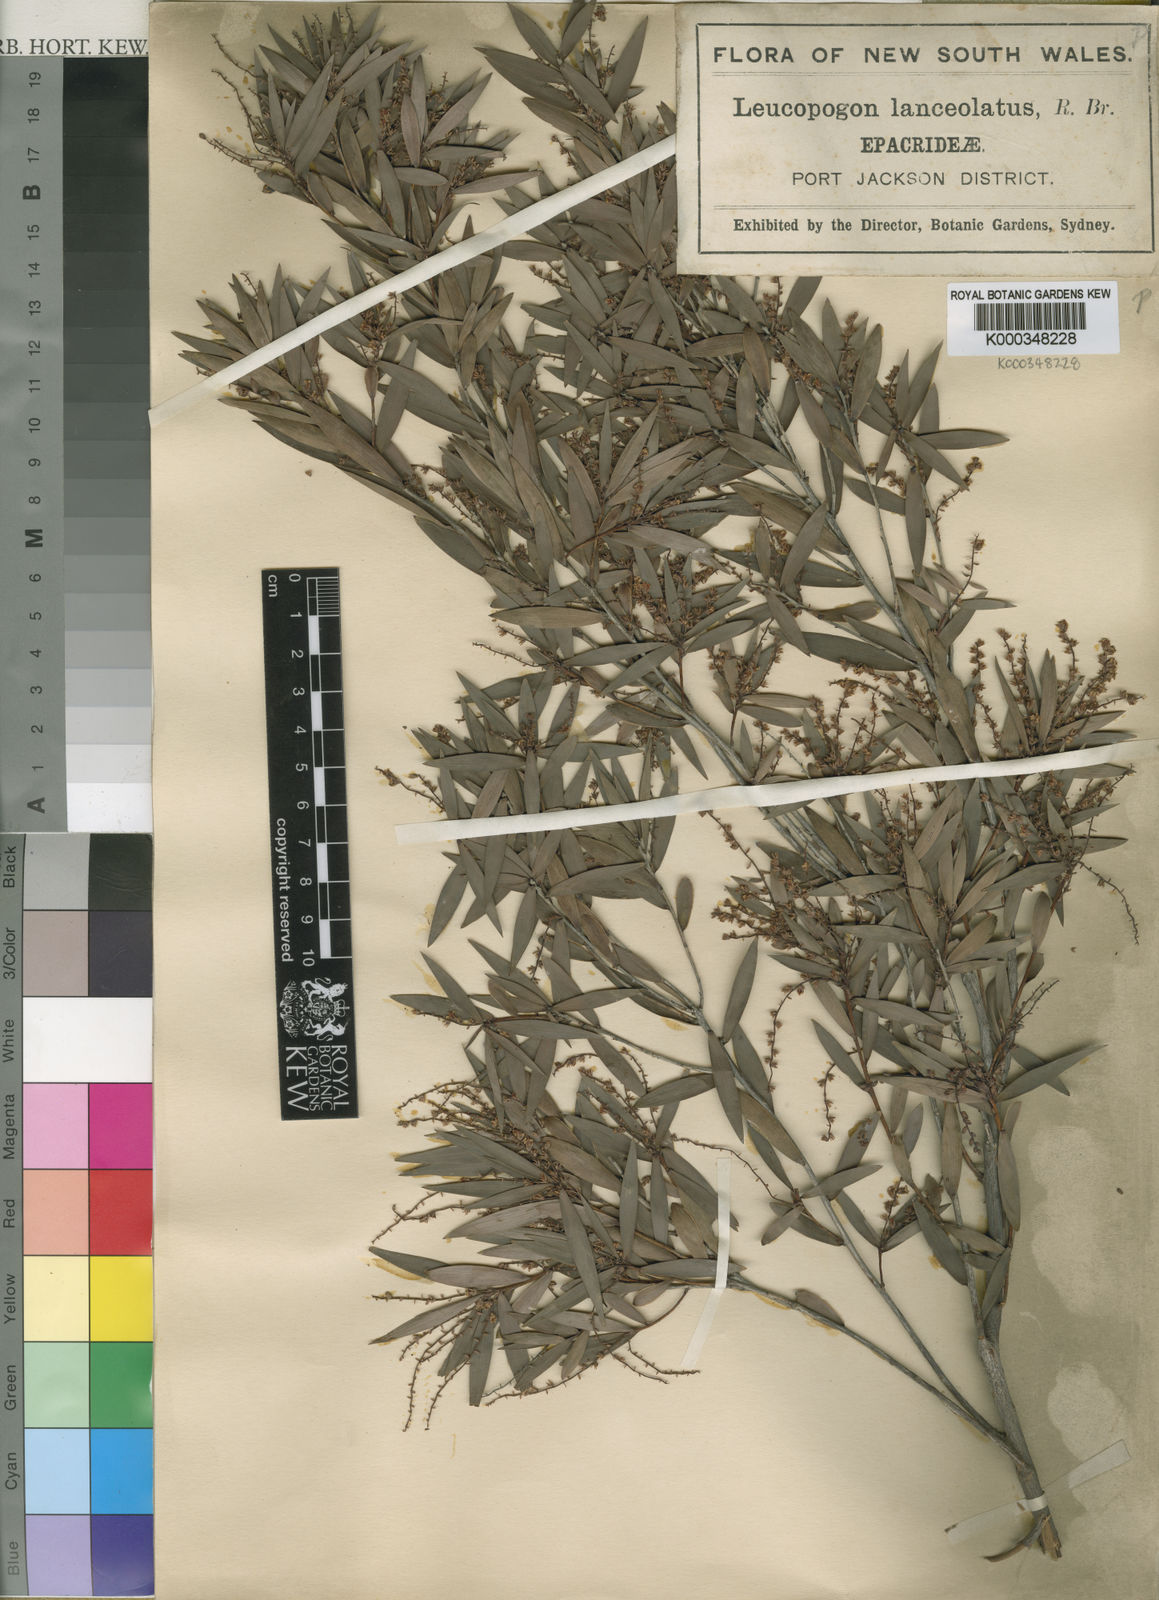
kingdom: Plantae
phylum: Tracheophyta
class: Magnoliopsida
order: Ericales
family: Ericaceae
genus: Leucopogon
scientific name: Leucopogon lanceolatus
